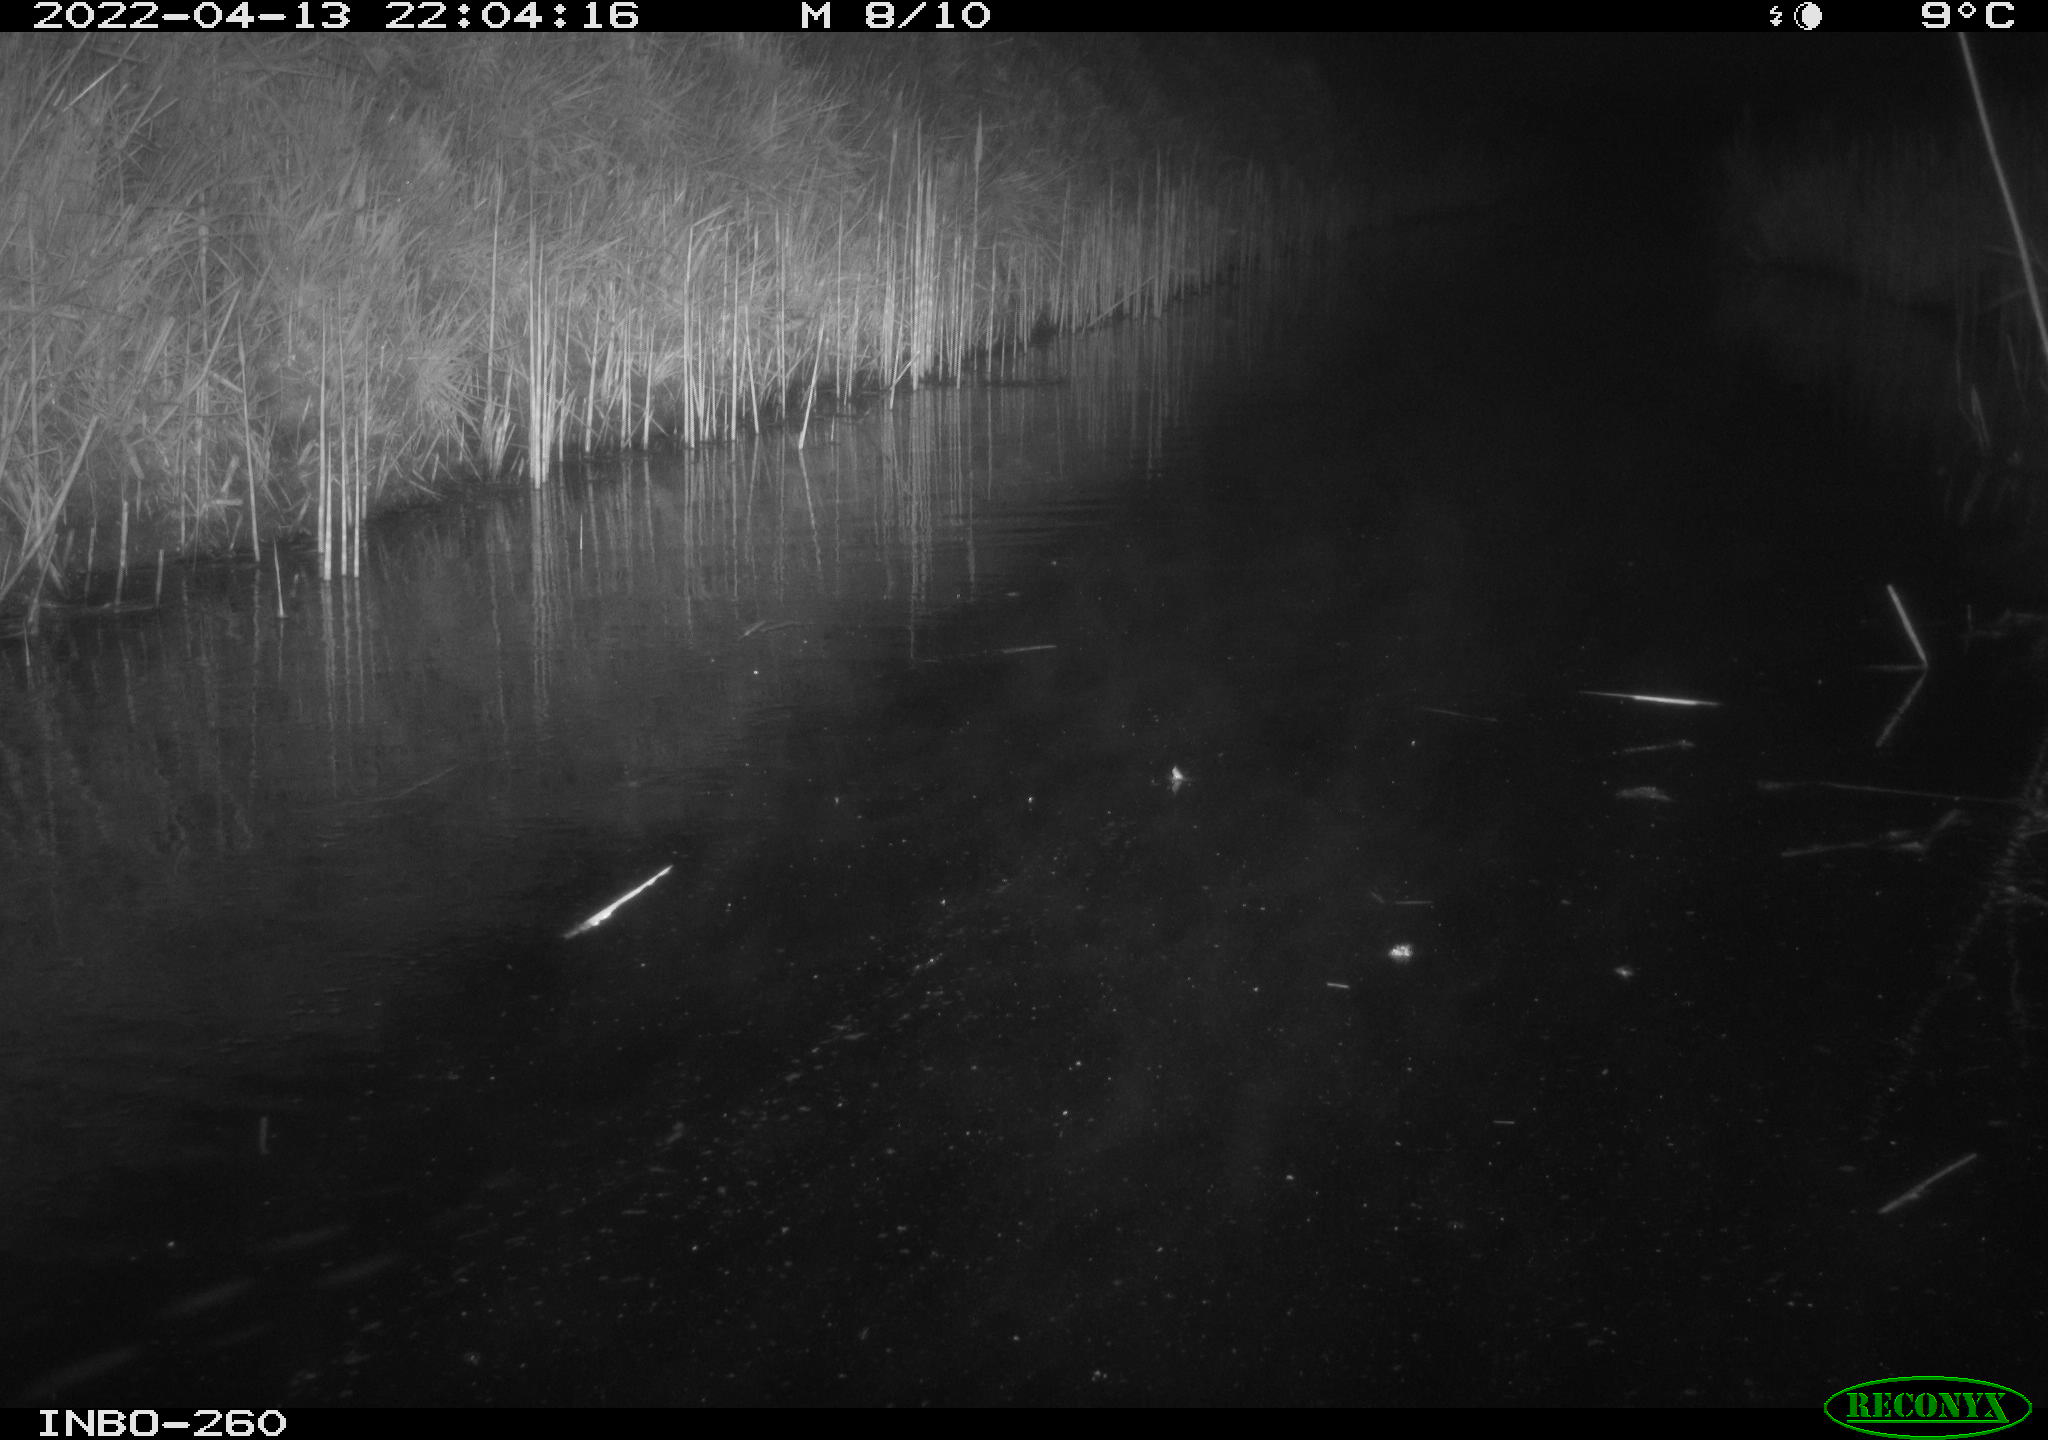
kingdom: Animalia
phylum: Chordata
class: Mammalia
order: Rodentia
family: Muridae
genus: Rattus
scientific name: Rattus norvegicus
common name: Brown rat
